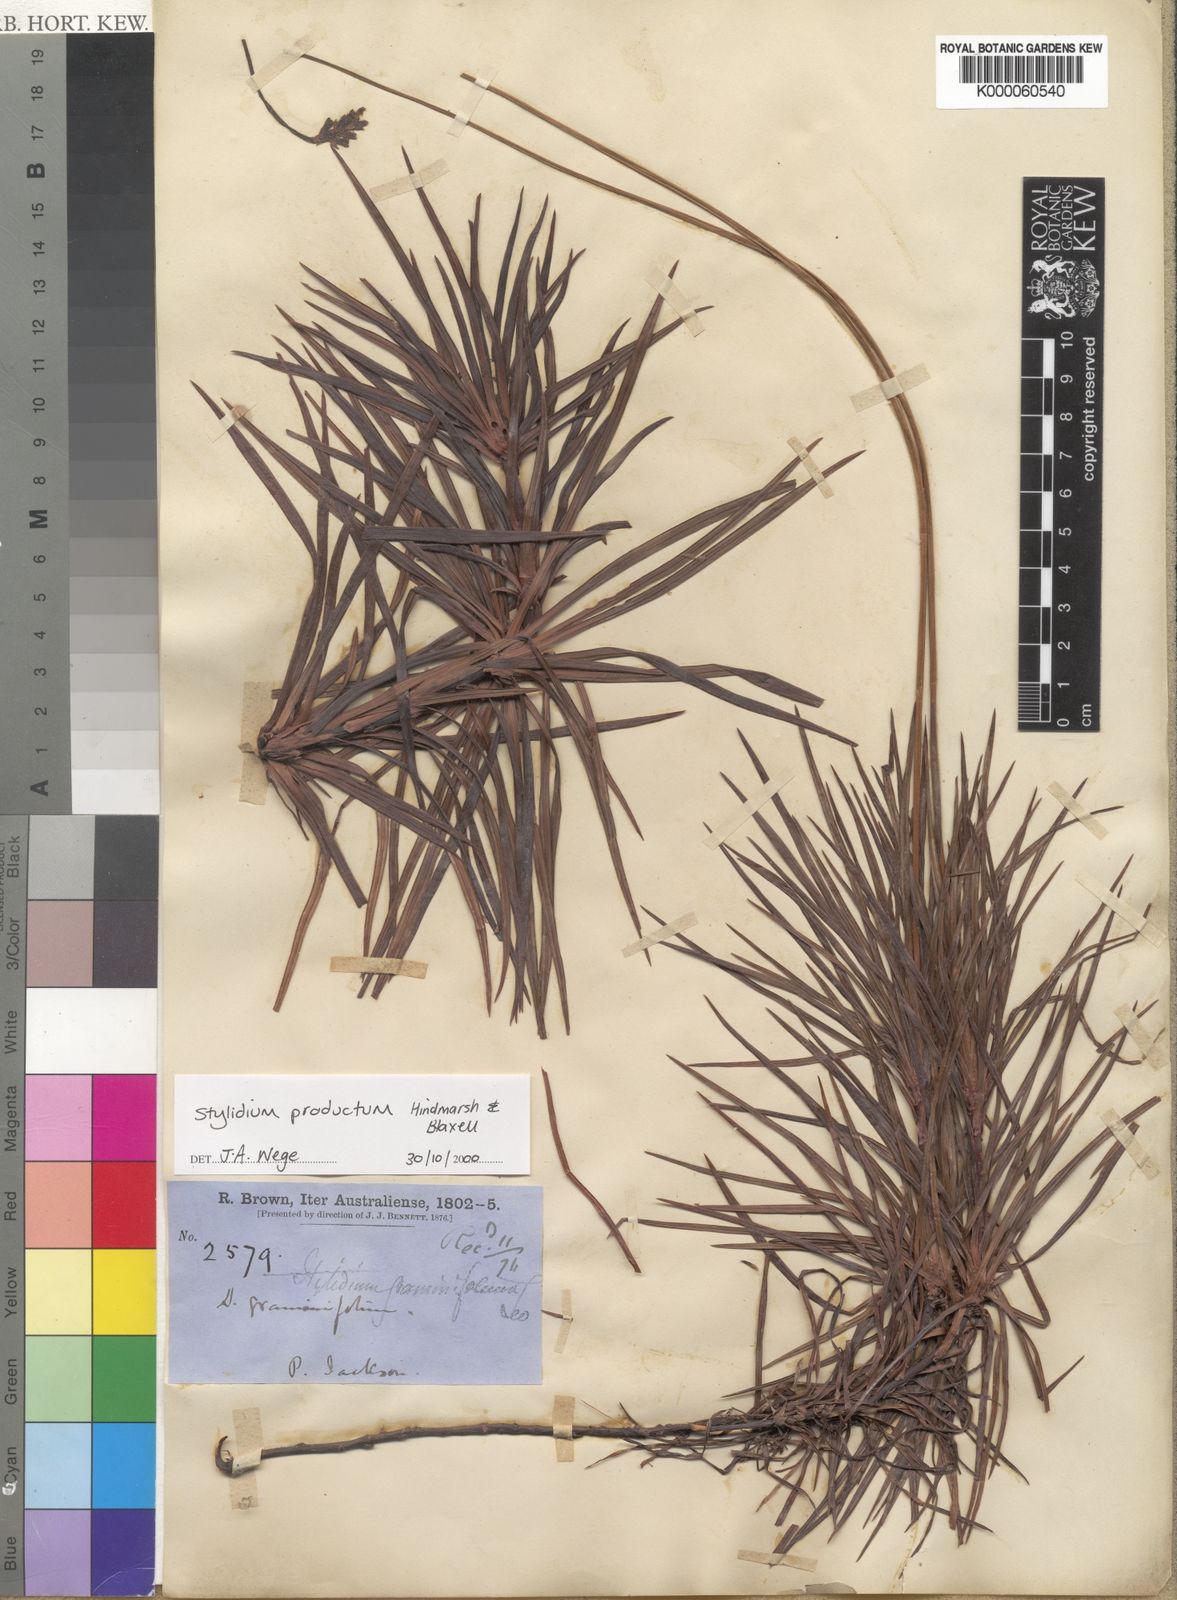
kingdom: Plantae
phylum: Tracheophyta
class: Magnoliopsida
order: Asterales
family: Stylidiaceae
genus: Stylidium
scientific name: Stylidium productum
